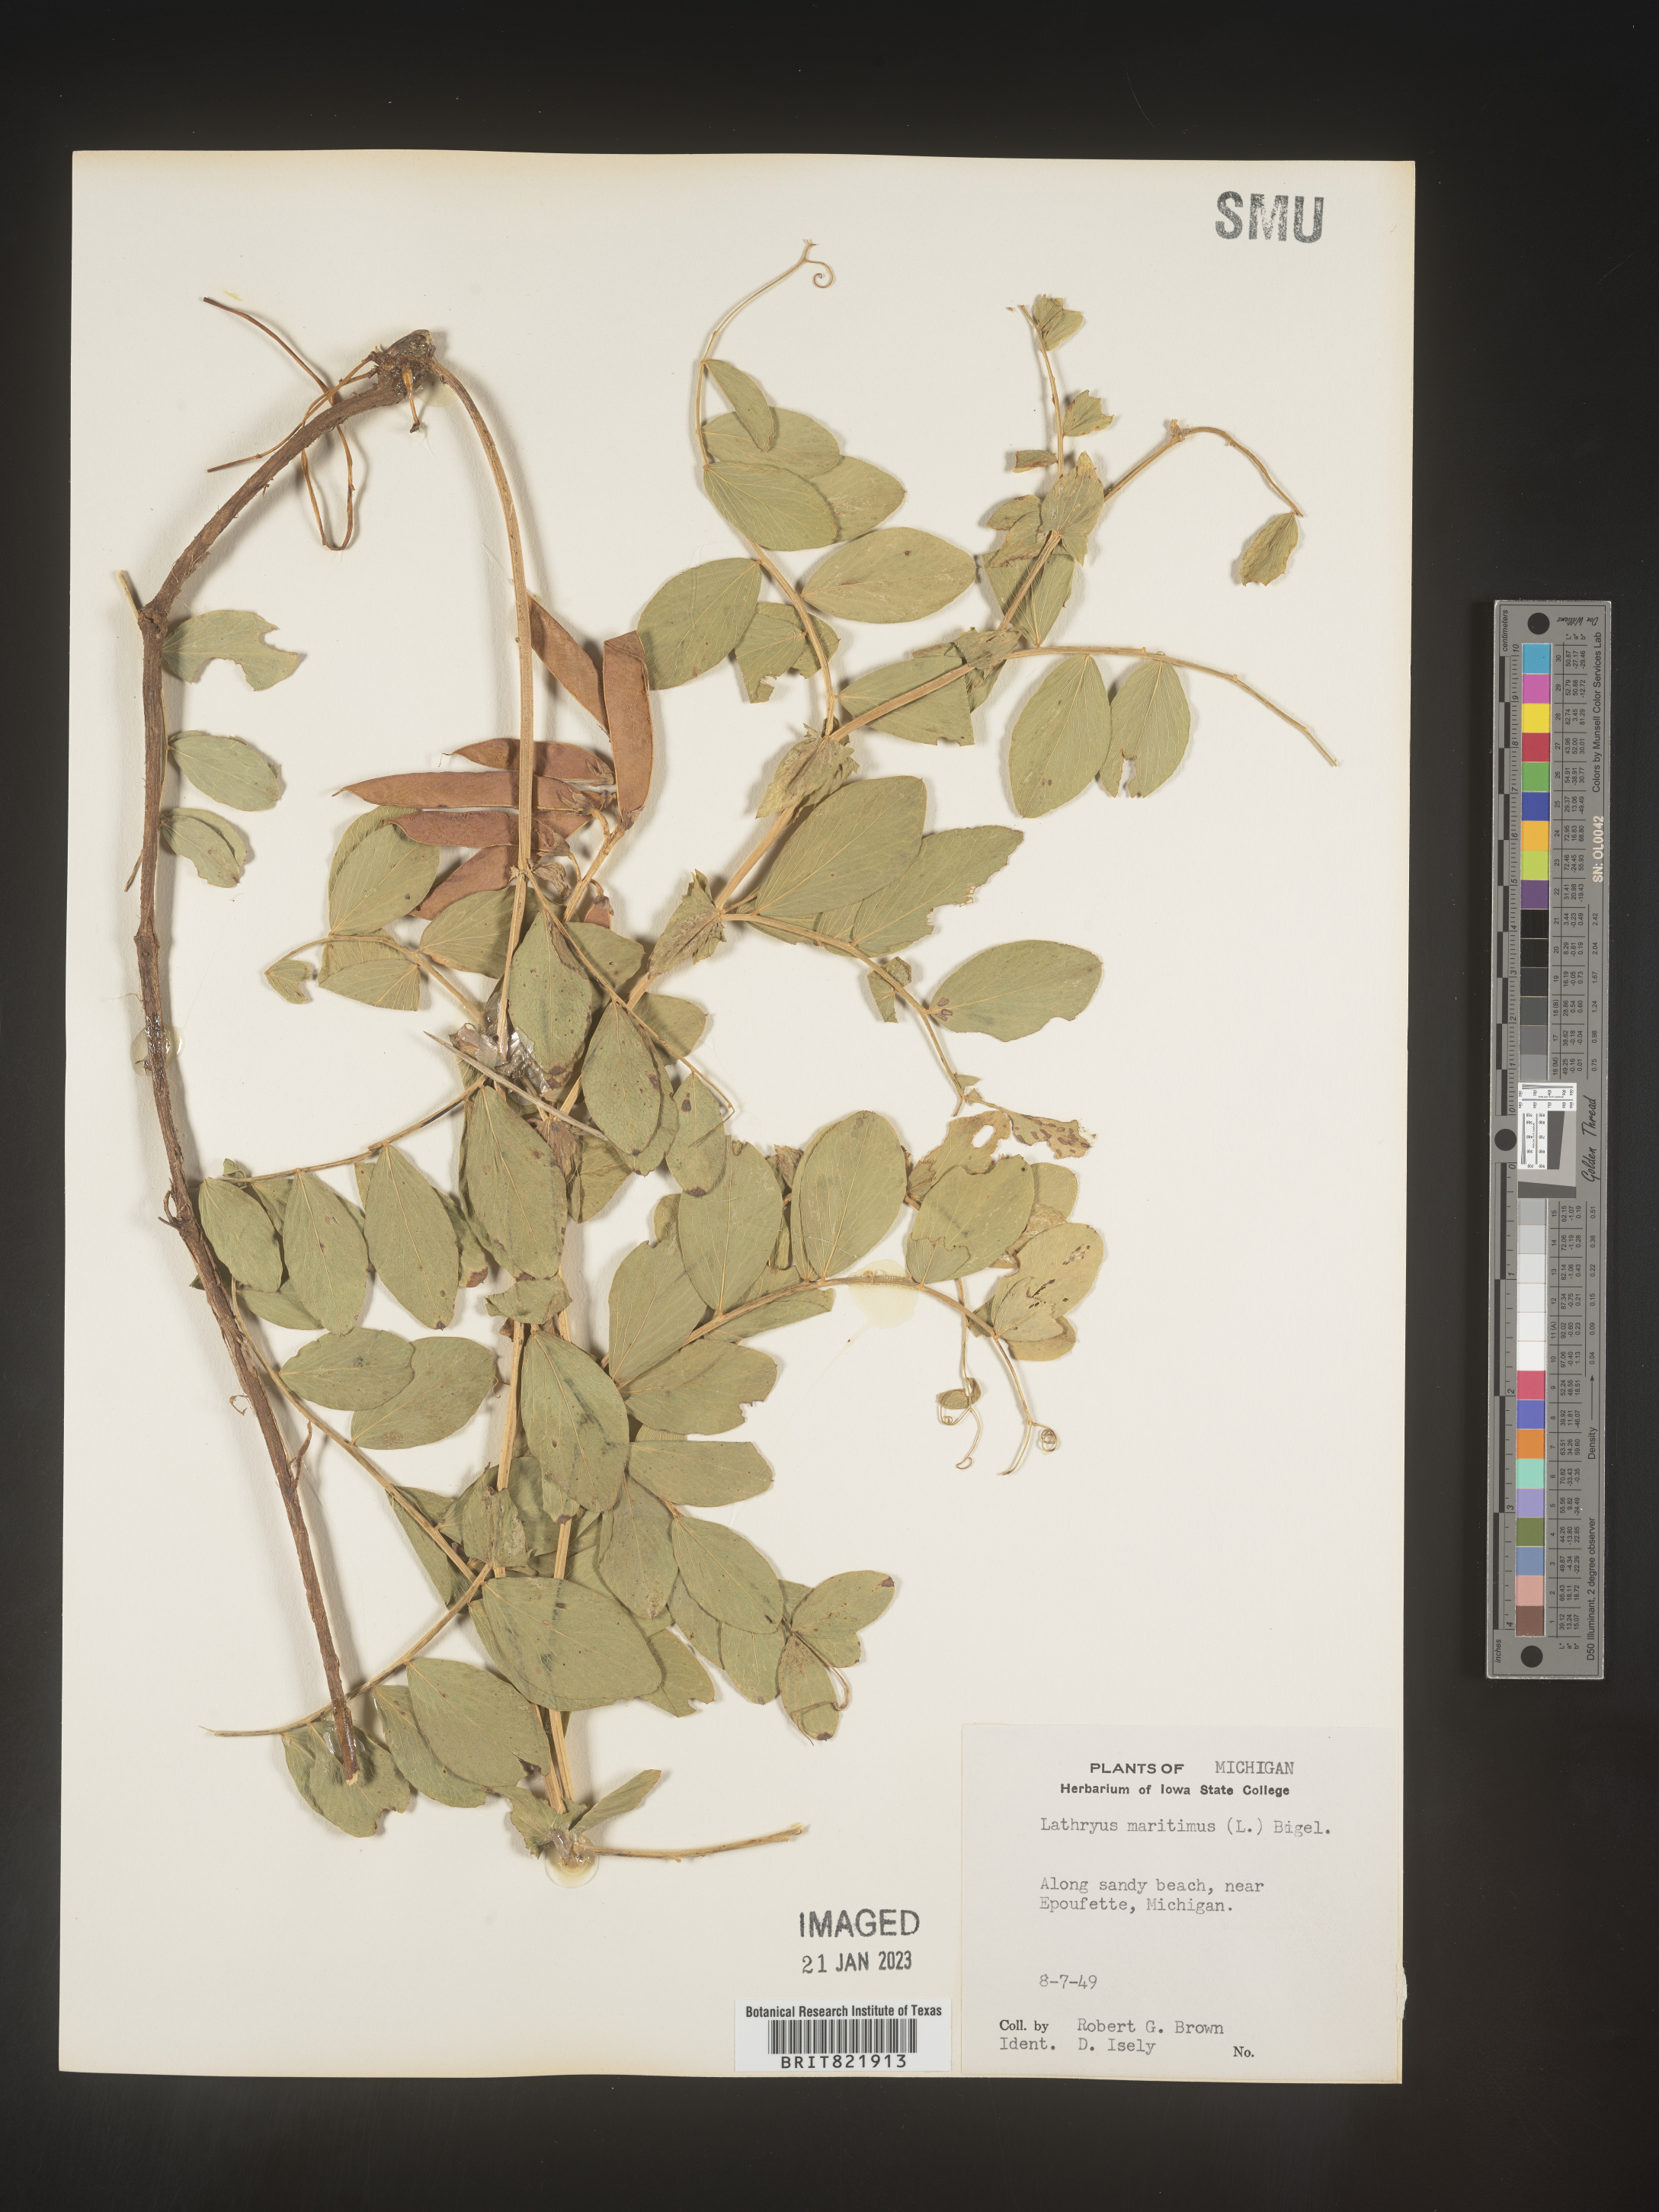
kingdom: Plantae
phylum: Tracheophyta
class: Magnoliopsida
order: Fabales
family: Fabaceae
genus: Lathyrus
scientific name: Lathyrus
